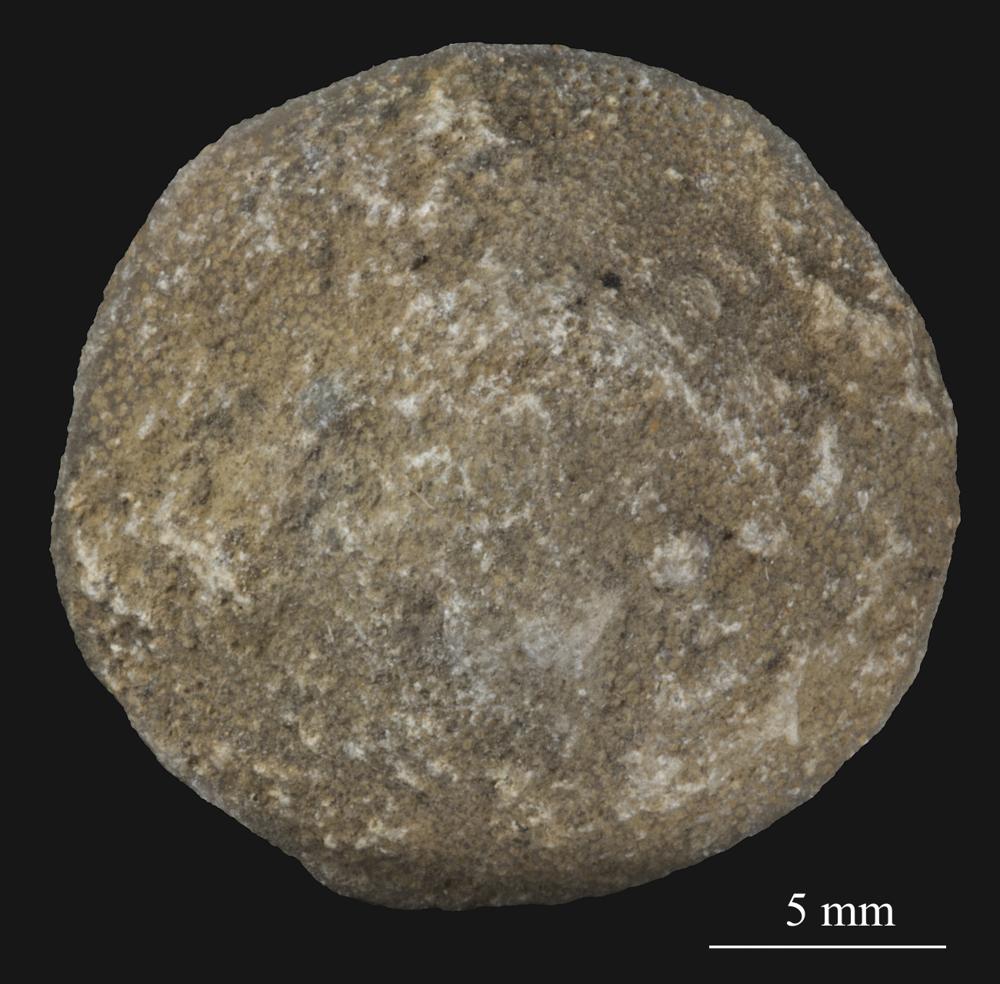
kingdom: Animalia
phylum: Bryozoa
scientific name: Bryozoa
